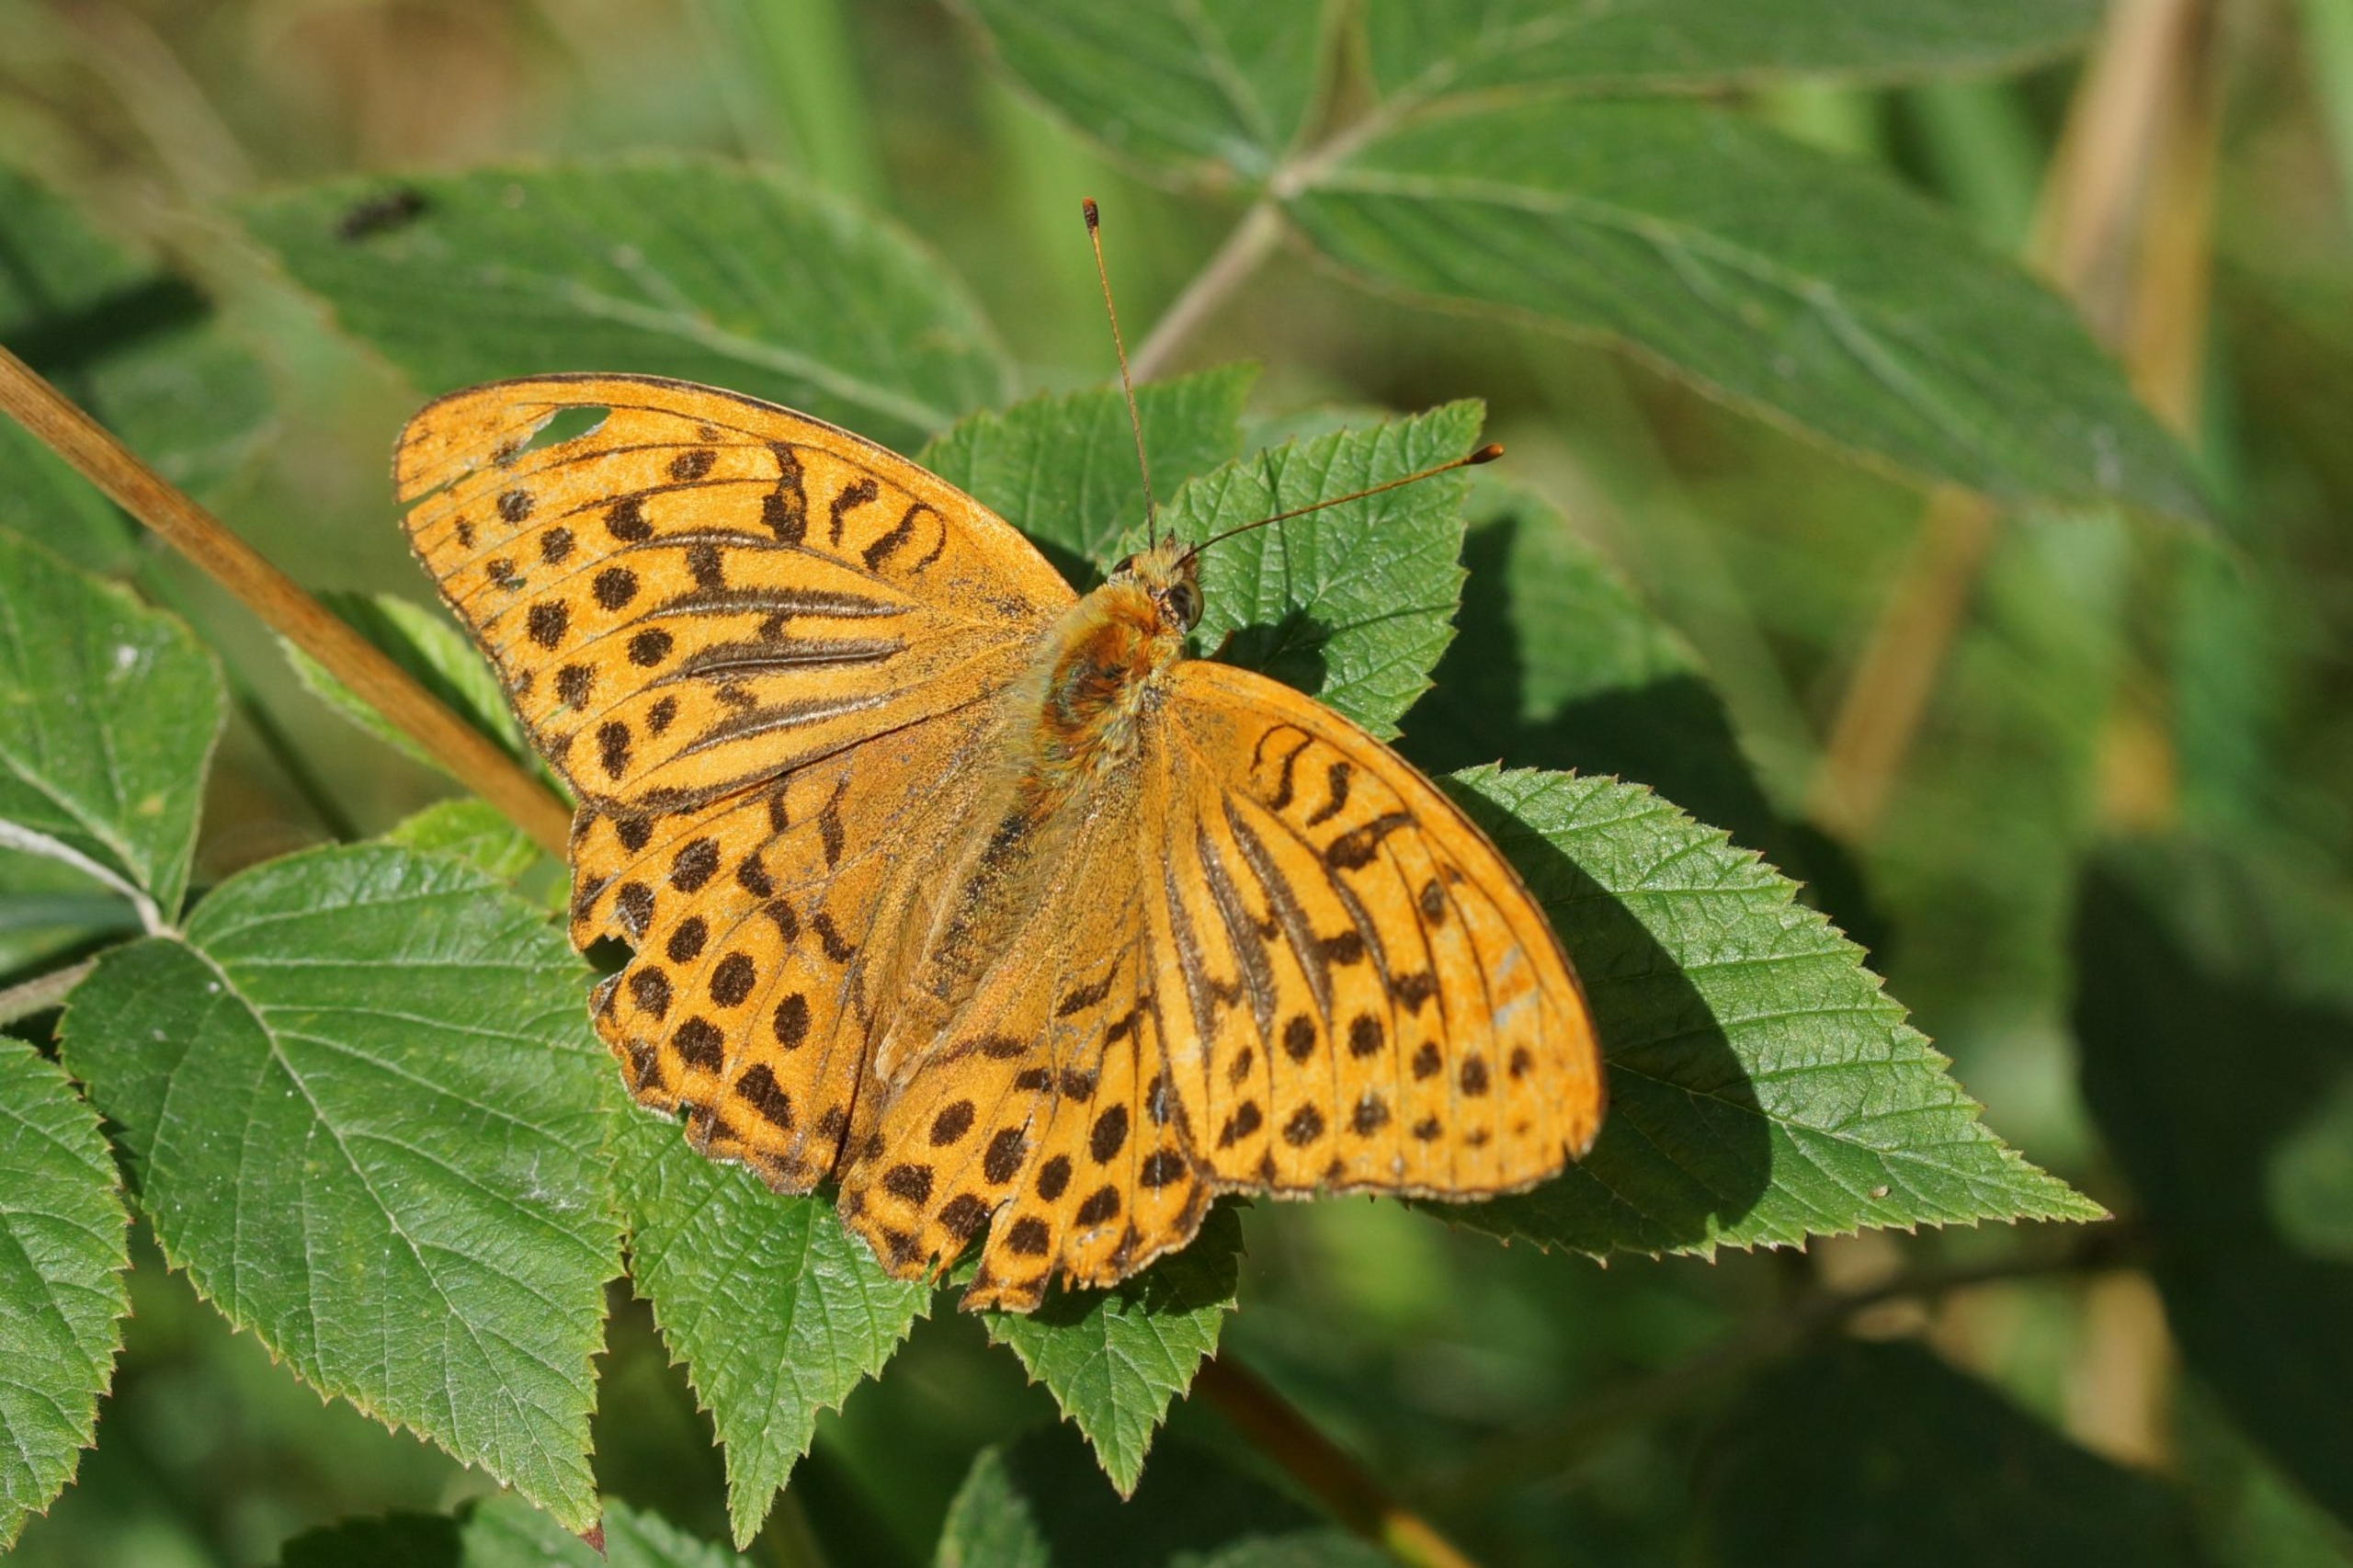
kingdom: Animalia
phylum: Arthropoda
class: Insecta
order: Lepidoptera
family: Nymphalidae
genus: Argynnis
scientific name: Argynnis paphia
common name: Kejserkåbe
